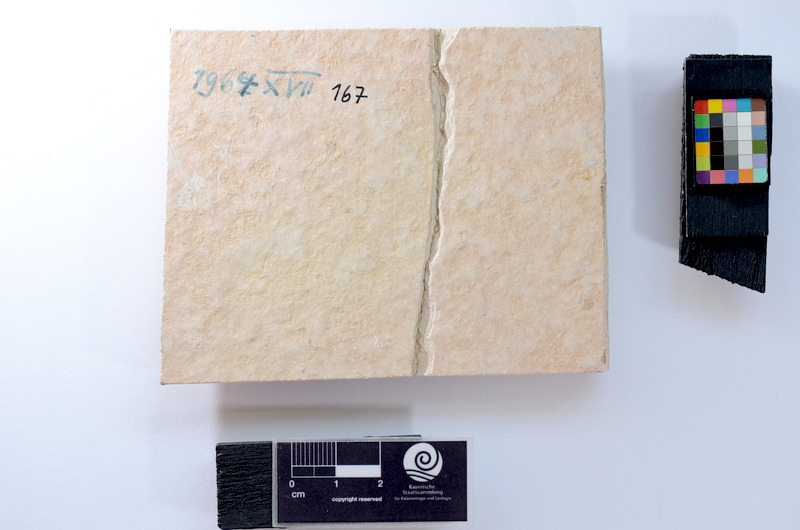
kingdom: Animalia
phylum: Chordata
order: Salmoniformes
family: Orthogonikleithridae
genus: Leptolepides
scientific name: Leptolepides
